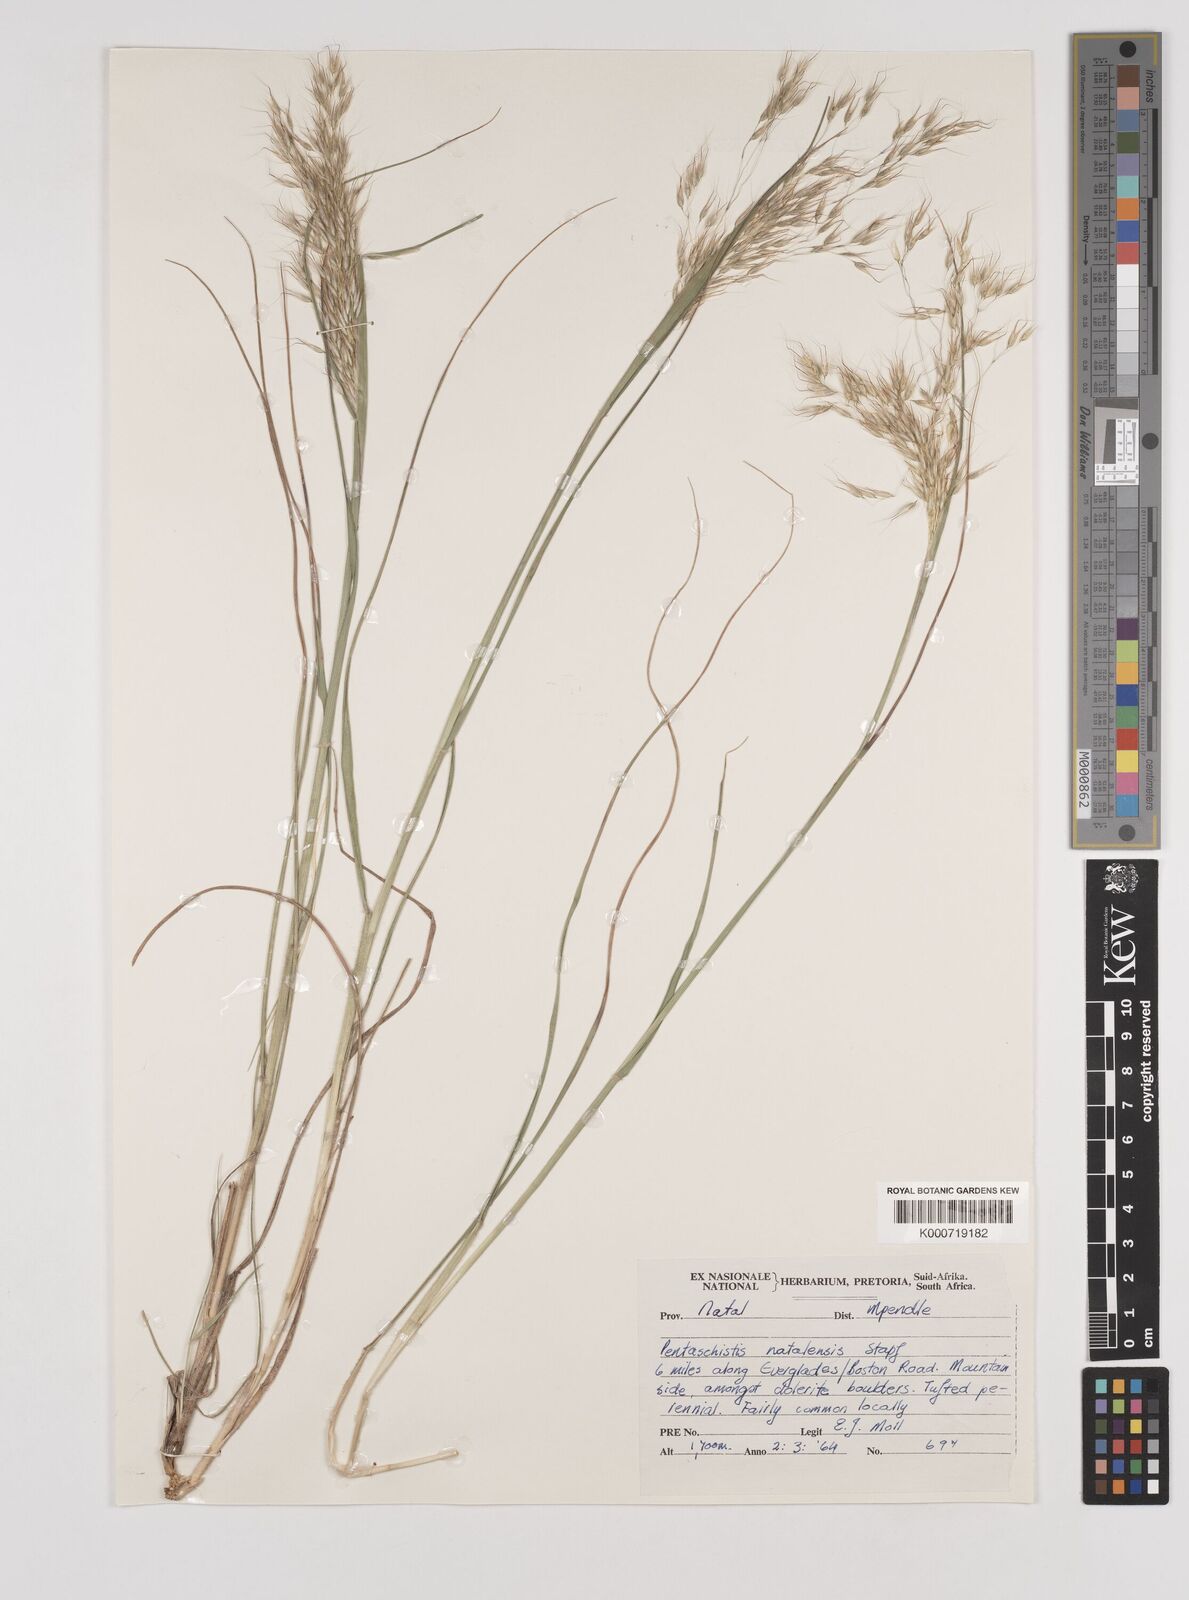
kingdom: Plantae
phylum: Tracheophyta
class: Liliopsida
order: Poales
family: Poaceae
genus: Pentameris
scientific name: Pentameris natalensis
